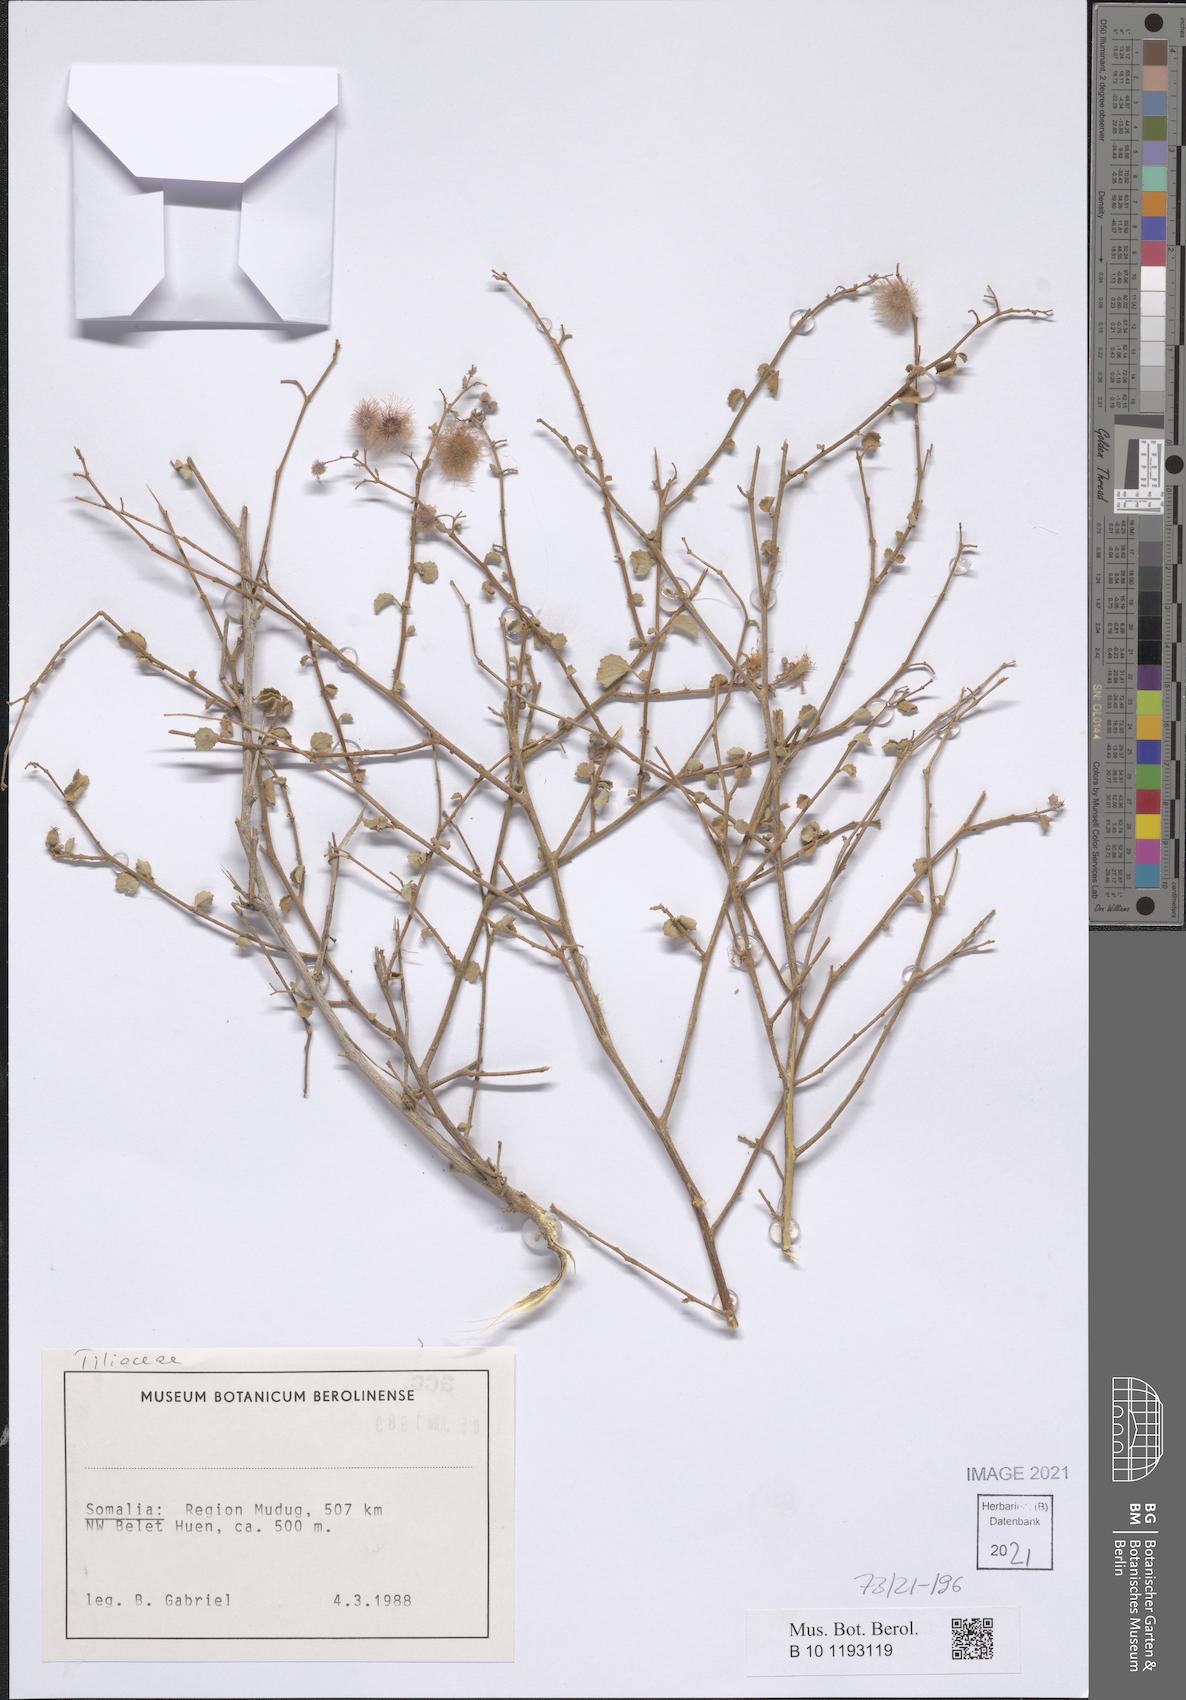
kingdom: Plantae
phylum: Tracheophyta
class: Magnoliopsida
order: Malvales
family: Malvaceae
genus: Triumfetta
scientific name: Triumfetta actinocarpa
